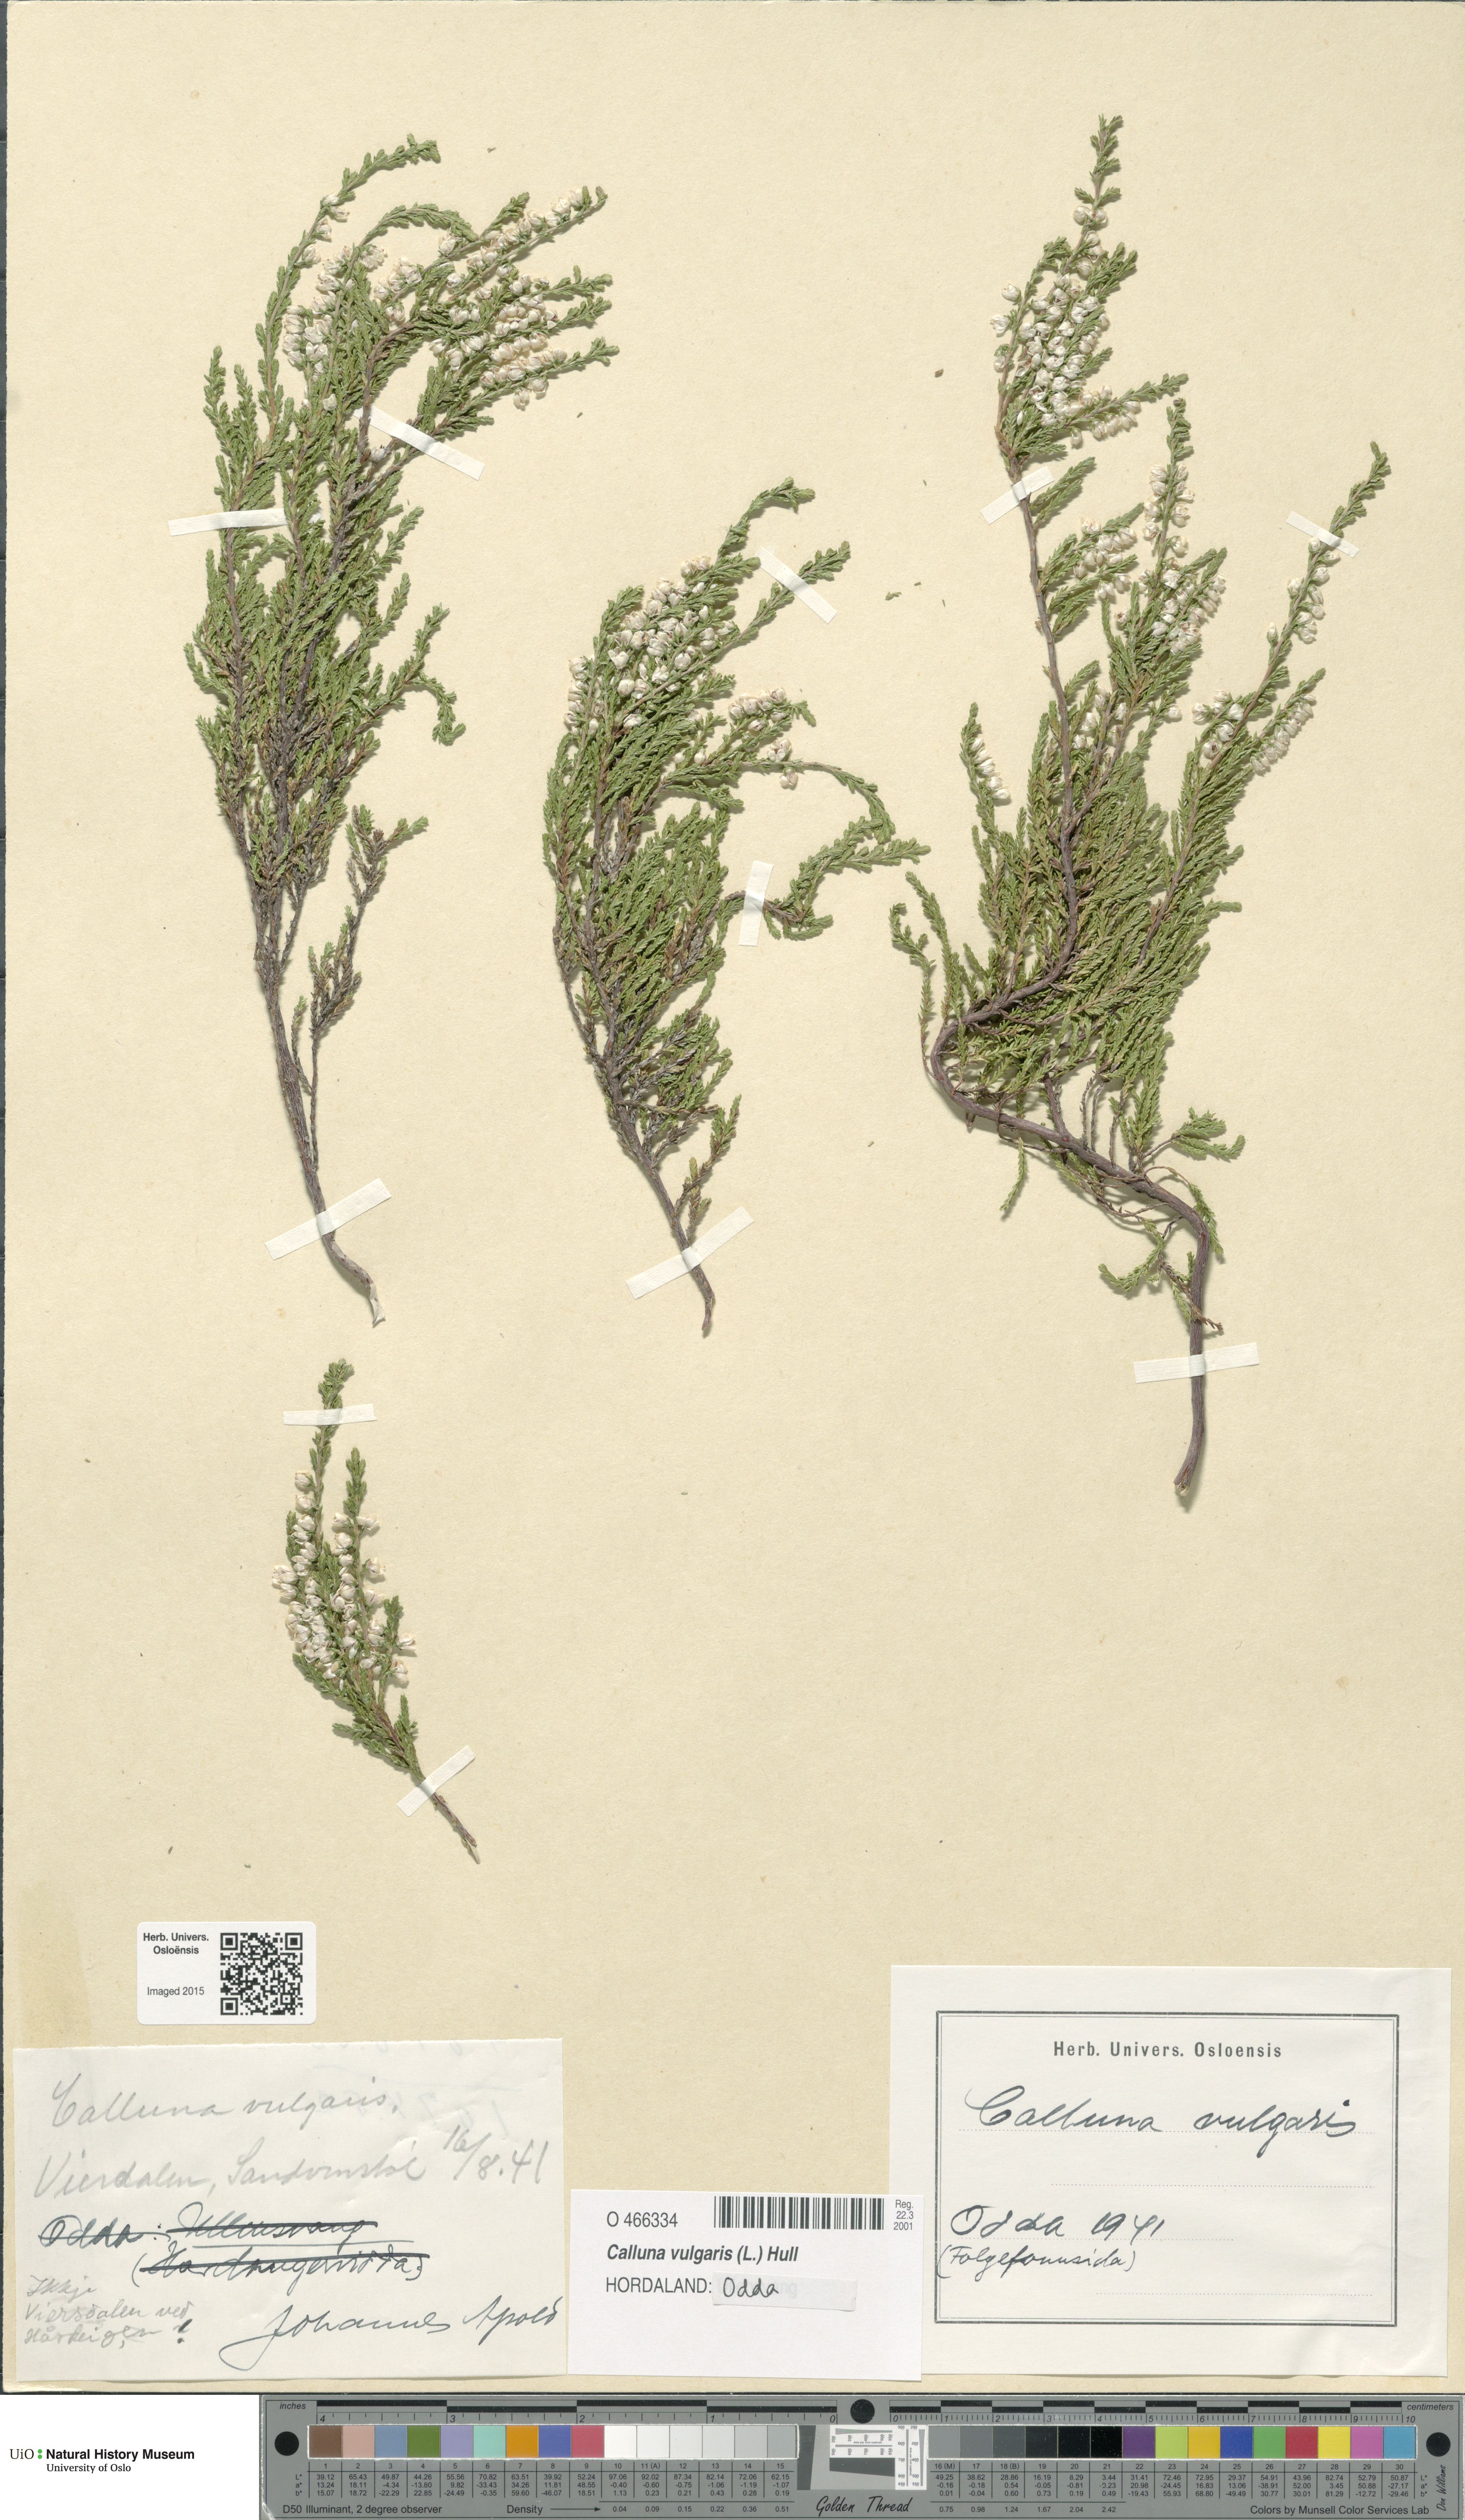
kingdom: Plantae
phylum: Tracheophyta
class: Magnoliopsida
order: Ericales
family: Ericaceae
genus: Calluna
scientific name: Calluna vulgaris
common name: Heather
